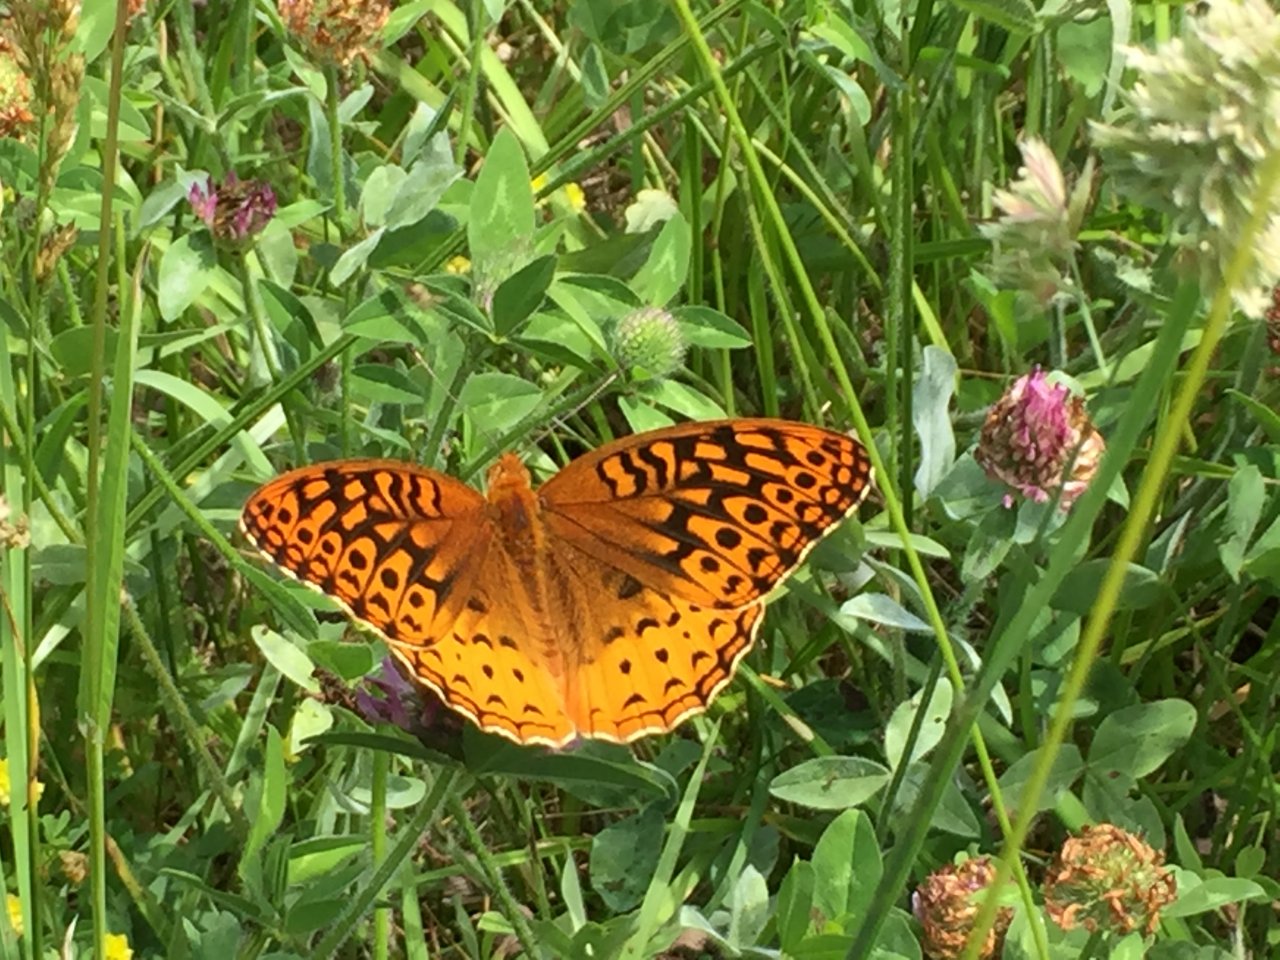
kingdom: Animalia
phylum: Arthropoda
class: Insecta
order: Lepidoptera
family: Nymphalidae
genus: Speyeria
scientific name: Speyeria cybele
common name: Great Spangled Fritillary
